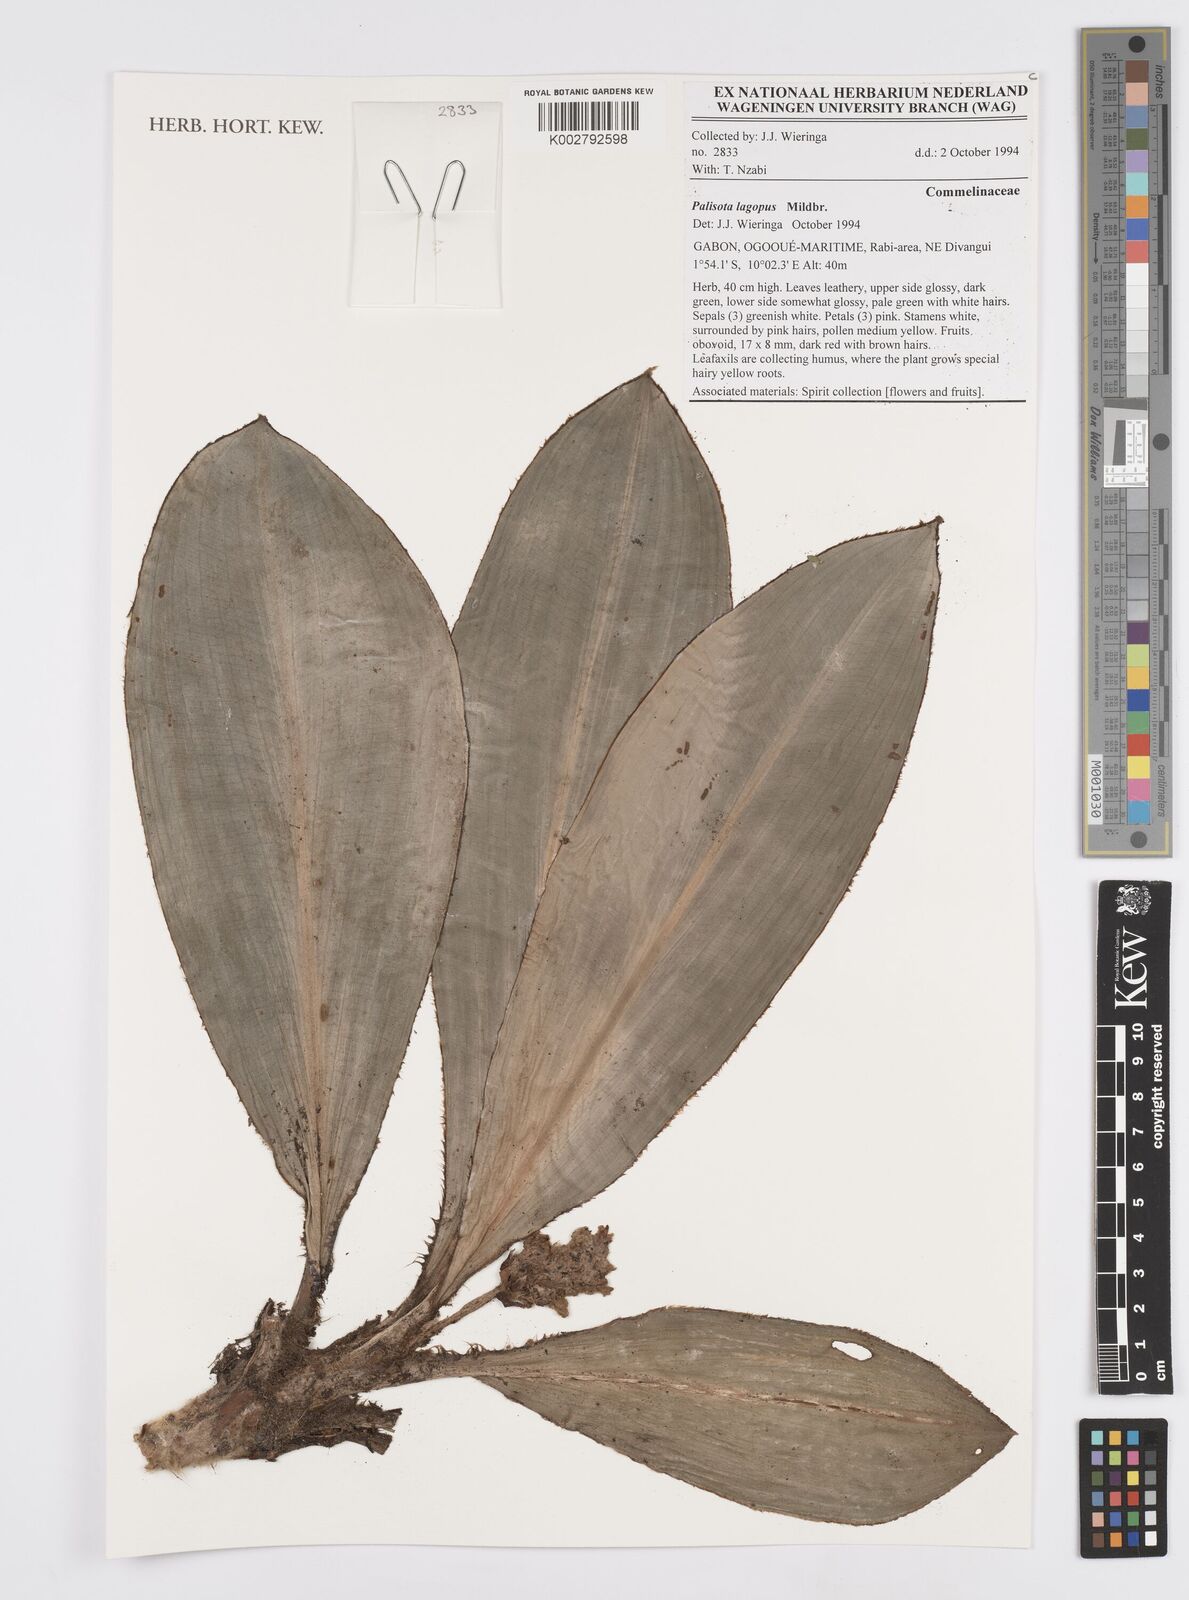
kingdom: Plantae
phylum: Tracheophyta
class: Liliopsida
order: Commelinales
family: Commelinaceae
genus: Palisota
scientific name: Palisota lagopus
